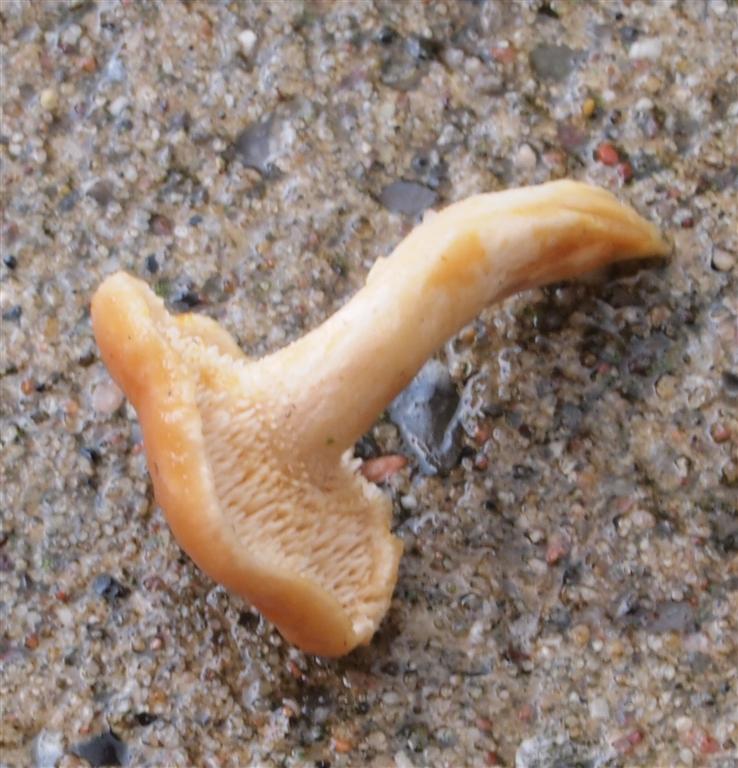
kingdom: Fungi
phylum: Basidiomycota
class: Agaricomycetes
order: Cantharellales
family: Hydnaceae
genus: Hydnum
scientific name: Hydnum umbilicatum
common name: navle-pigsvamp
